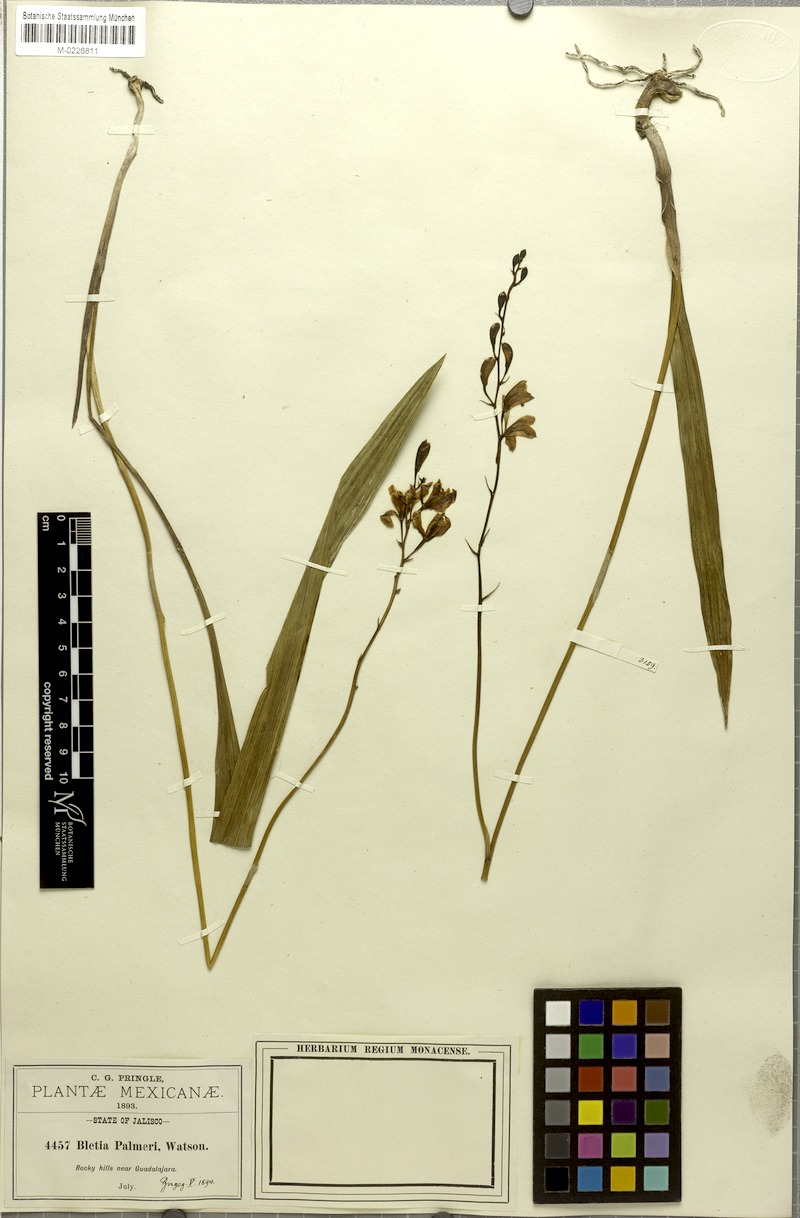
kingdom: Plantae
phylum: Tracheophyta
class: Liliopsida
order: Asparagales
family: Orchidaceae
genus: Bletia
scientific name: Bletia adenocarpa
